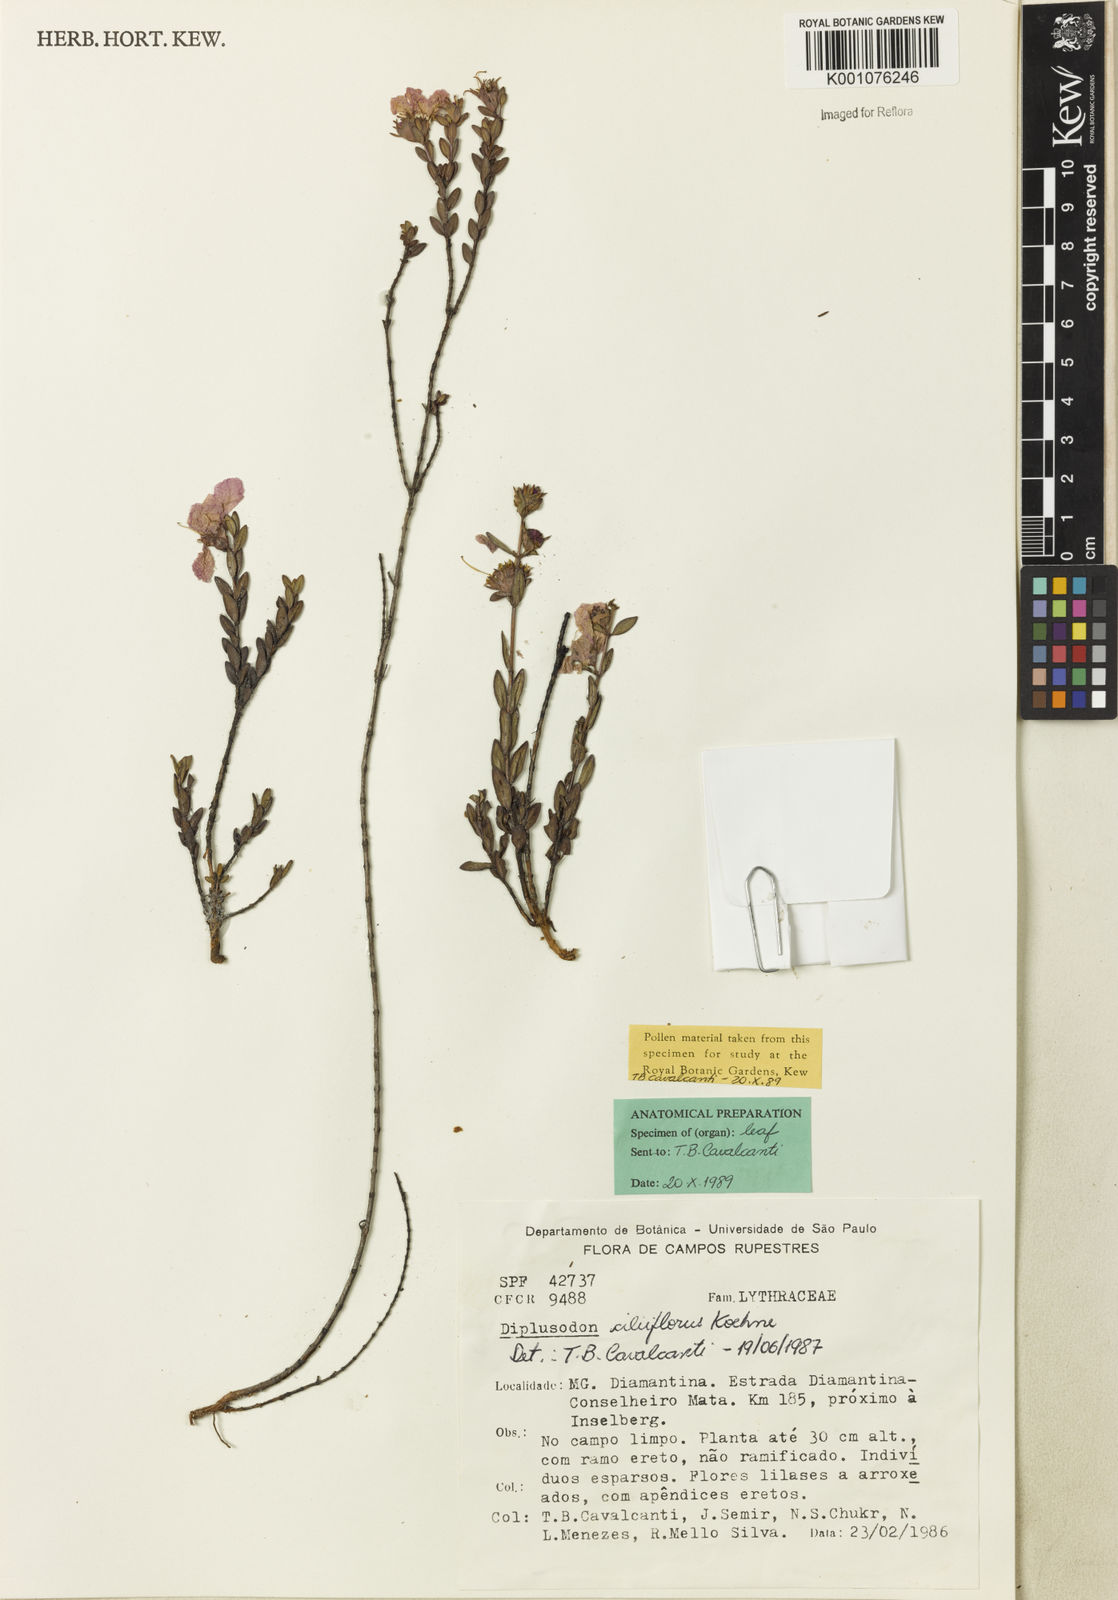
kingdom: Plantae
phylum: Tracheophyta
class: Magnoliopsida
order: Myrtales
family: Lythraceae
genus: Diplusodon
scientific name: Diplusodon ciliiflorus
